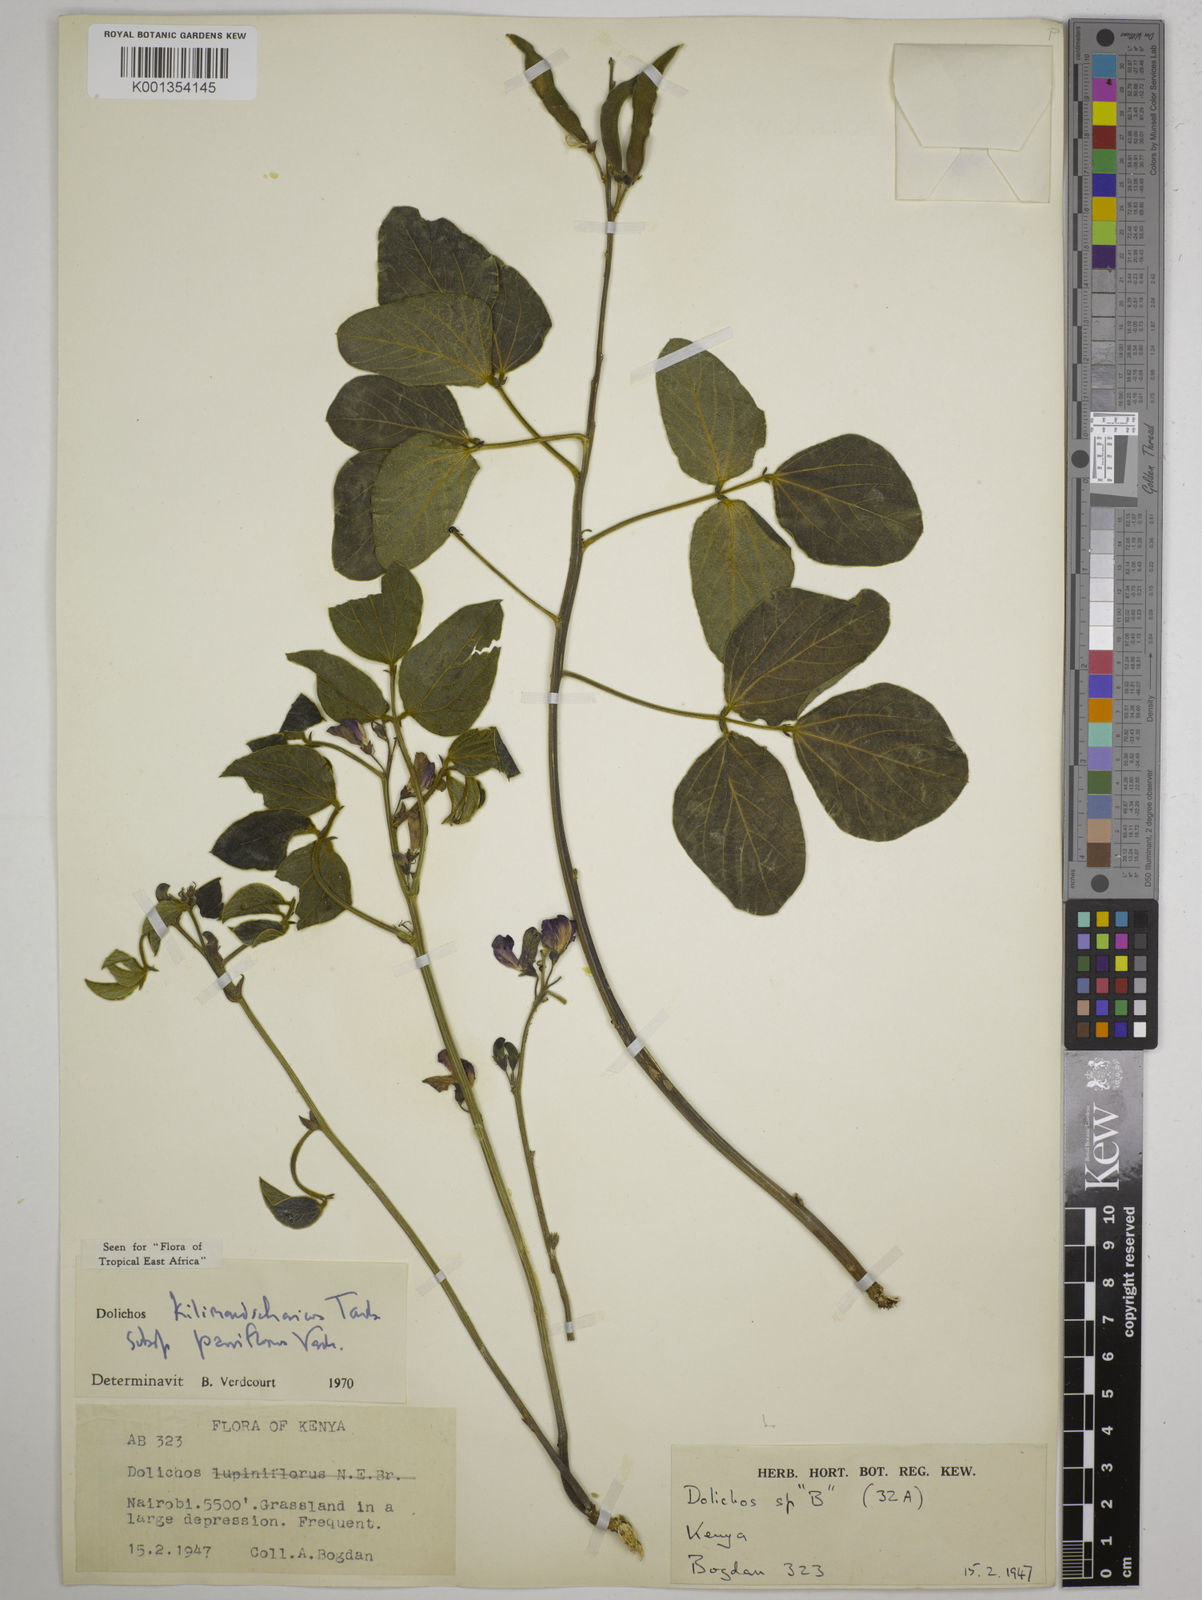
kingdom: Plantae
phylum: Tracheophyta
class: Magnoliopsida
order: Fabales
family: Fabaceae
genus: Dolichos
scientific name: Dolichos
